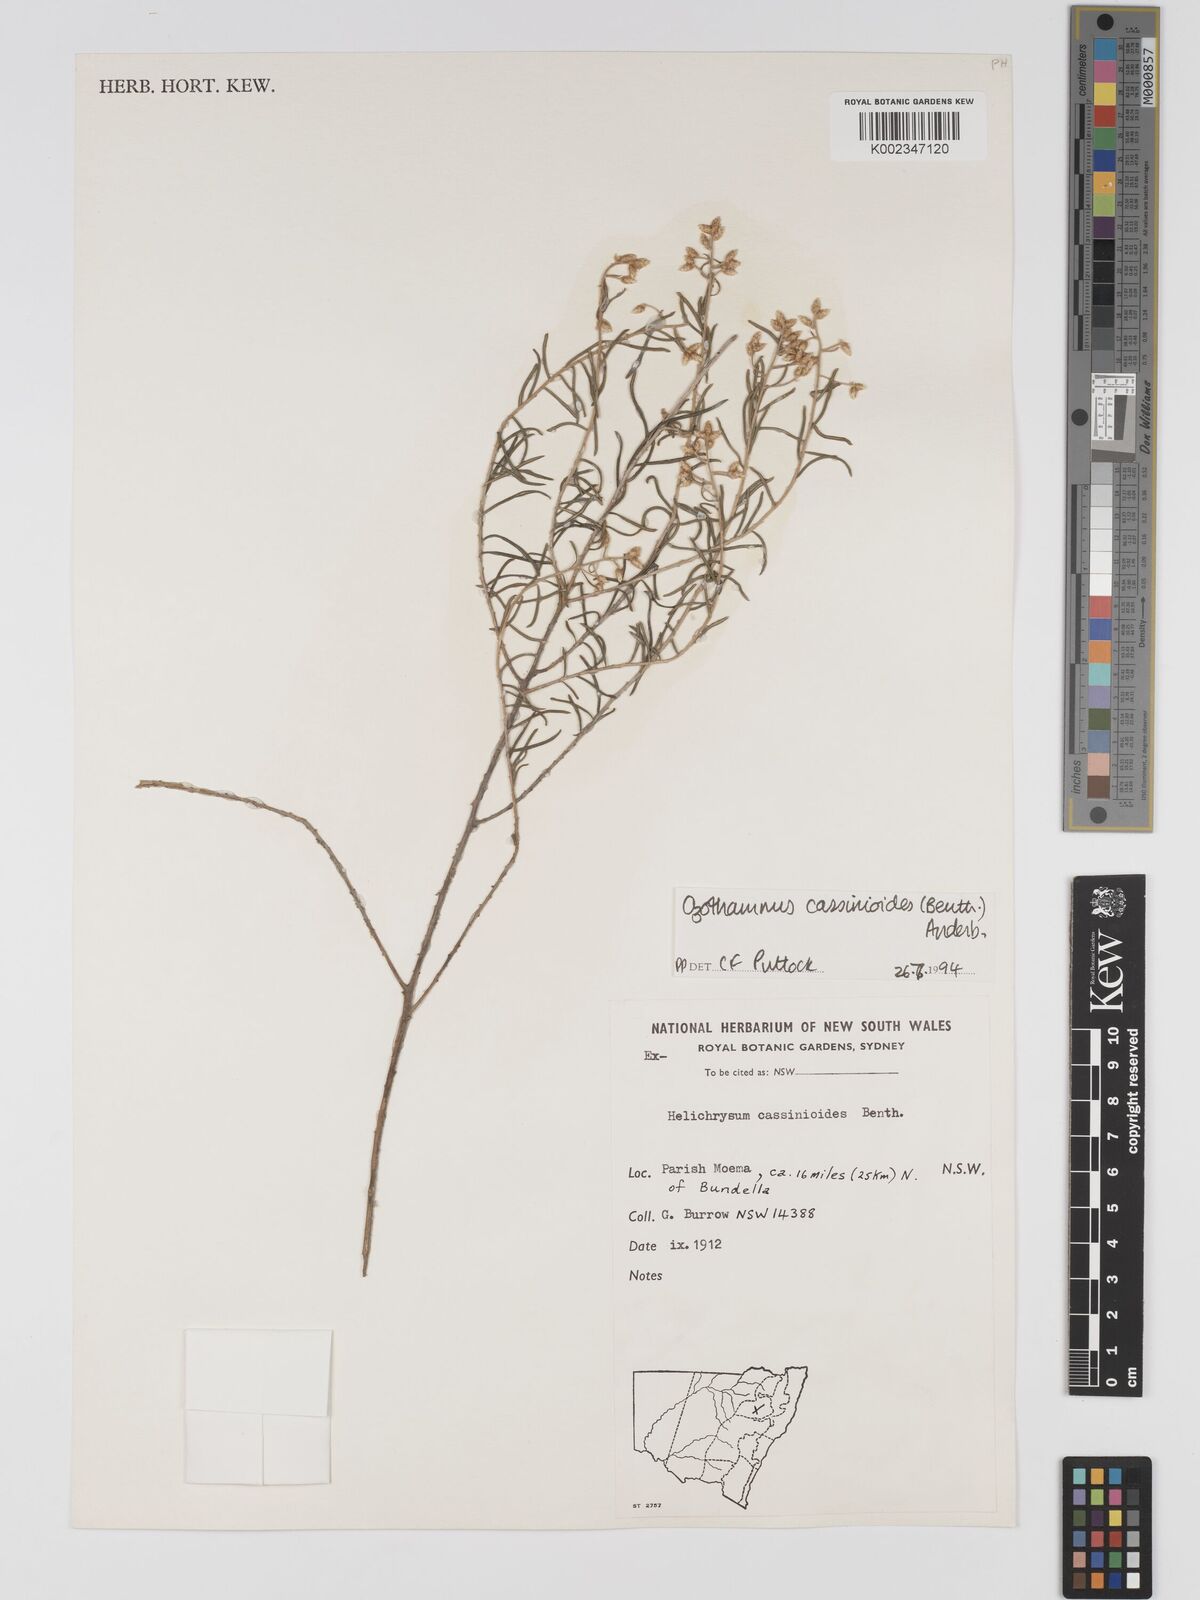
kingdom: Plantae
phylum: Tracheophyta
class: Magnoliopsida
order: Asterales
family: Asteraceae
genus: Ozothamnus
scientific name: Ozothamnus cassinioides
